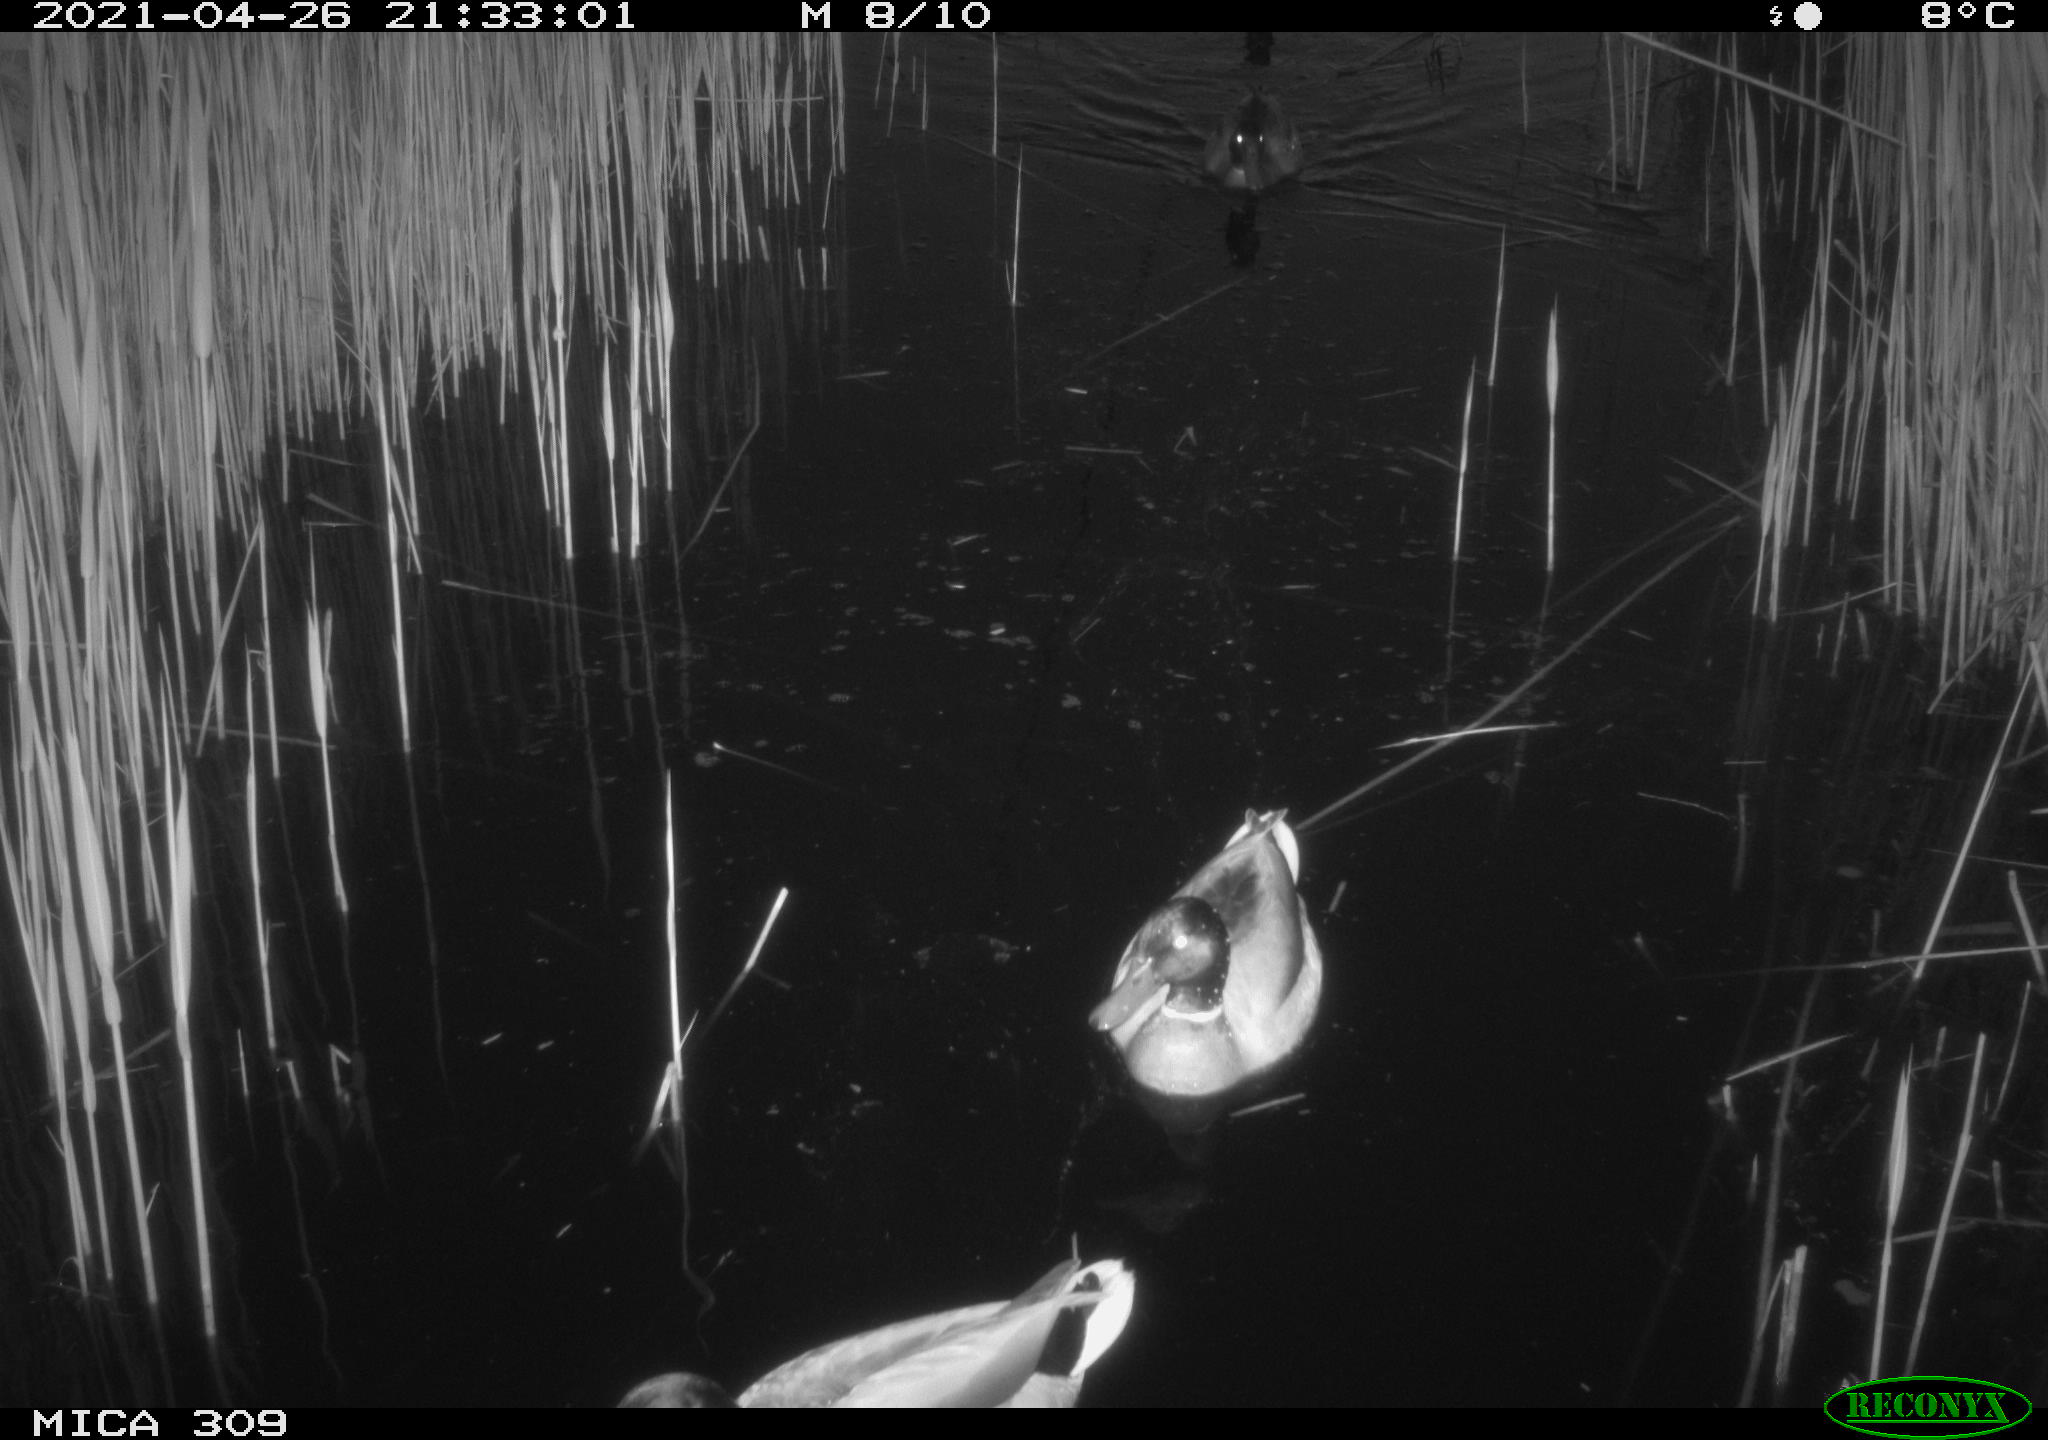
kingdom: Animalia
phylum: Chordata
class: Aves
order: Anseriformes
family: Anatidae
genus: Anas
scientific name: Anas platyrhynchos
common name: Mallard
